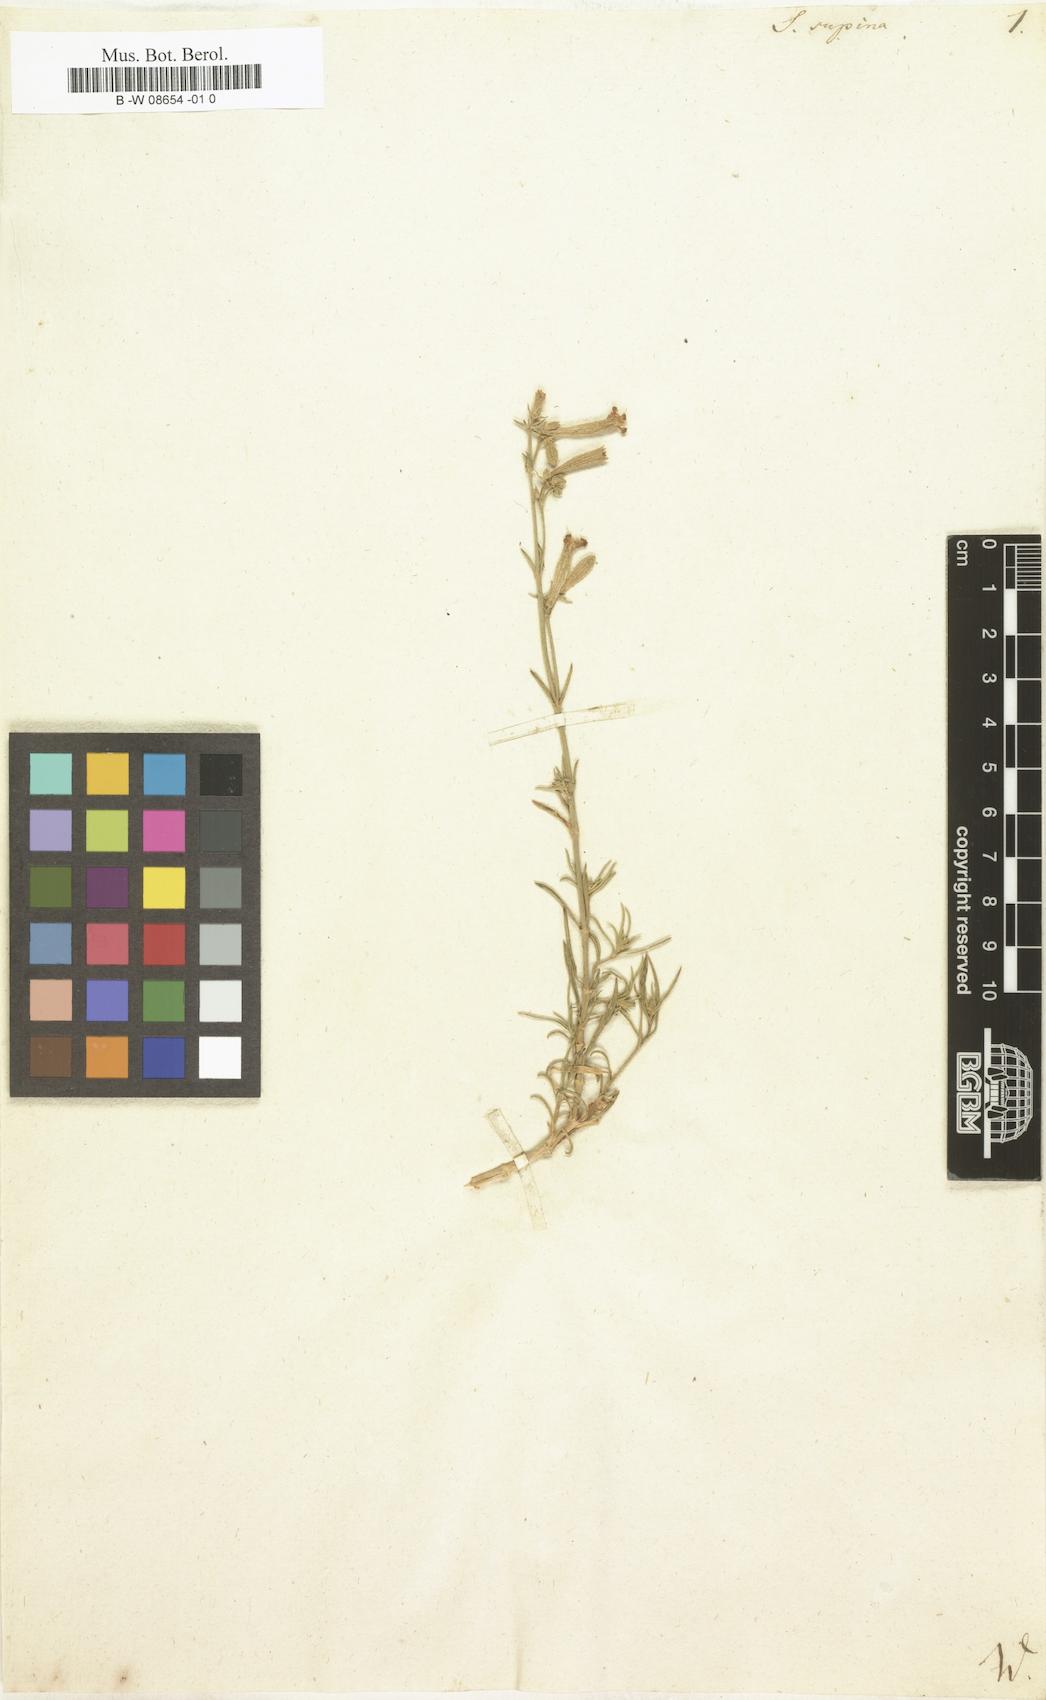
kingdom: Plantae
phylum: Tracheophyta
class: Magnoliopsida
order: Caryophyllales
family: Caryophyllaceae
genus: Silene
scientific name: Silene supina
